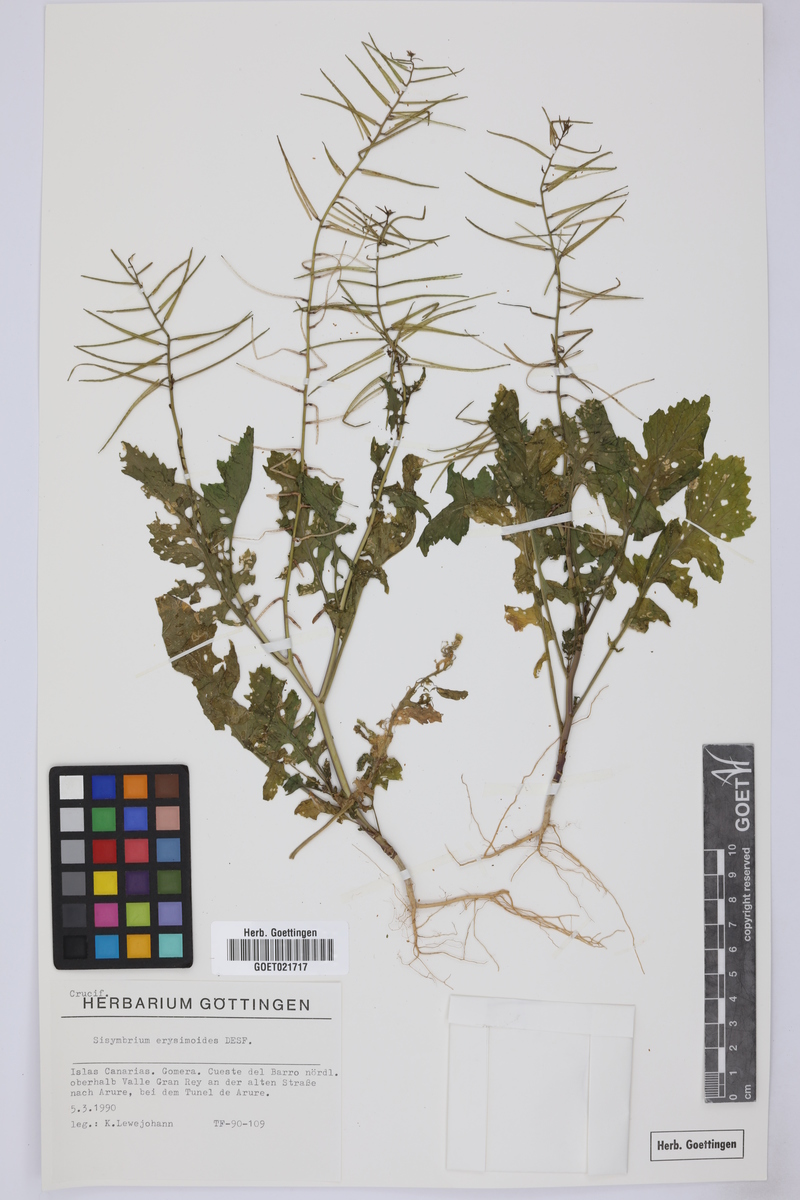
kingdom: Plantae
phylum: Tracheophyta
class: Magnoliopsida
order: Brassicales
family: Brassicaceae
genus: Sisymbrium
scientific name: Sisymbrium erysimoides
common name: French rocket
